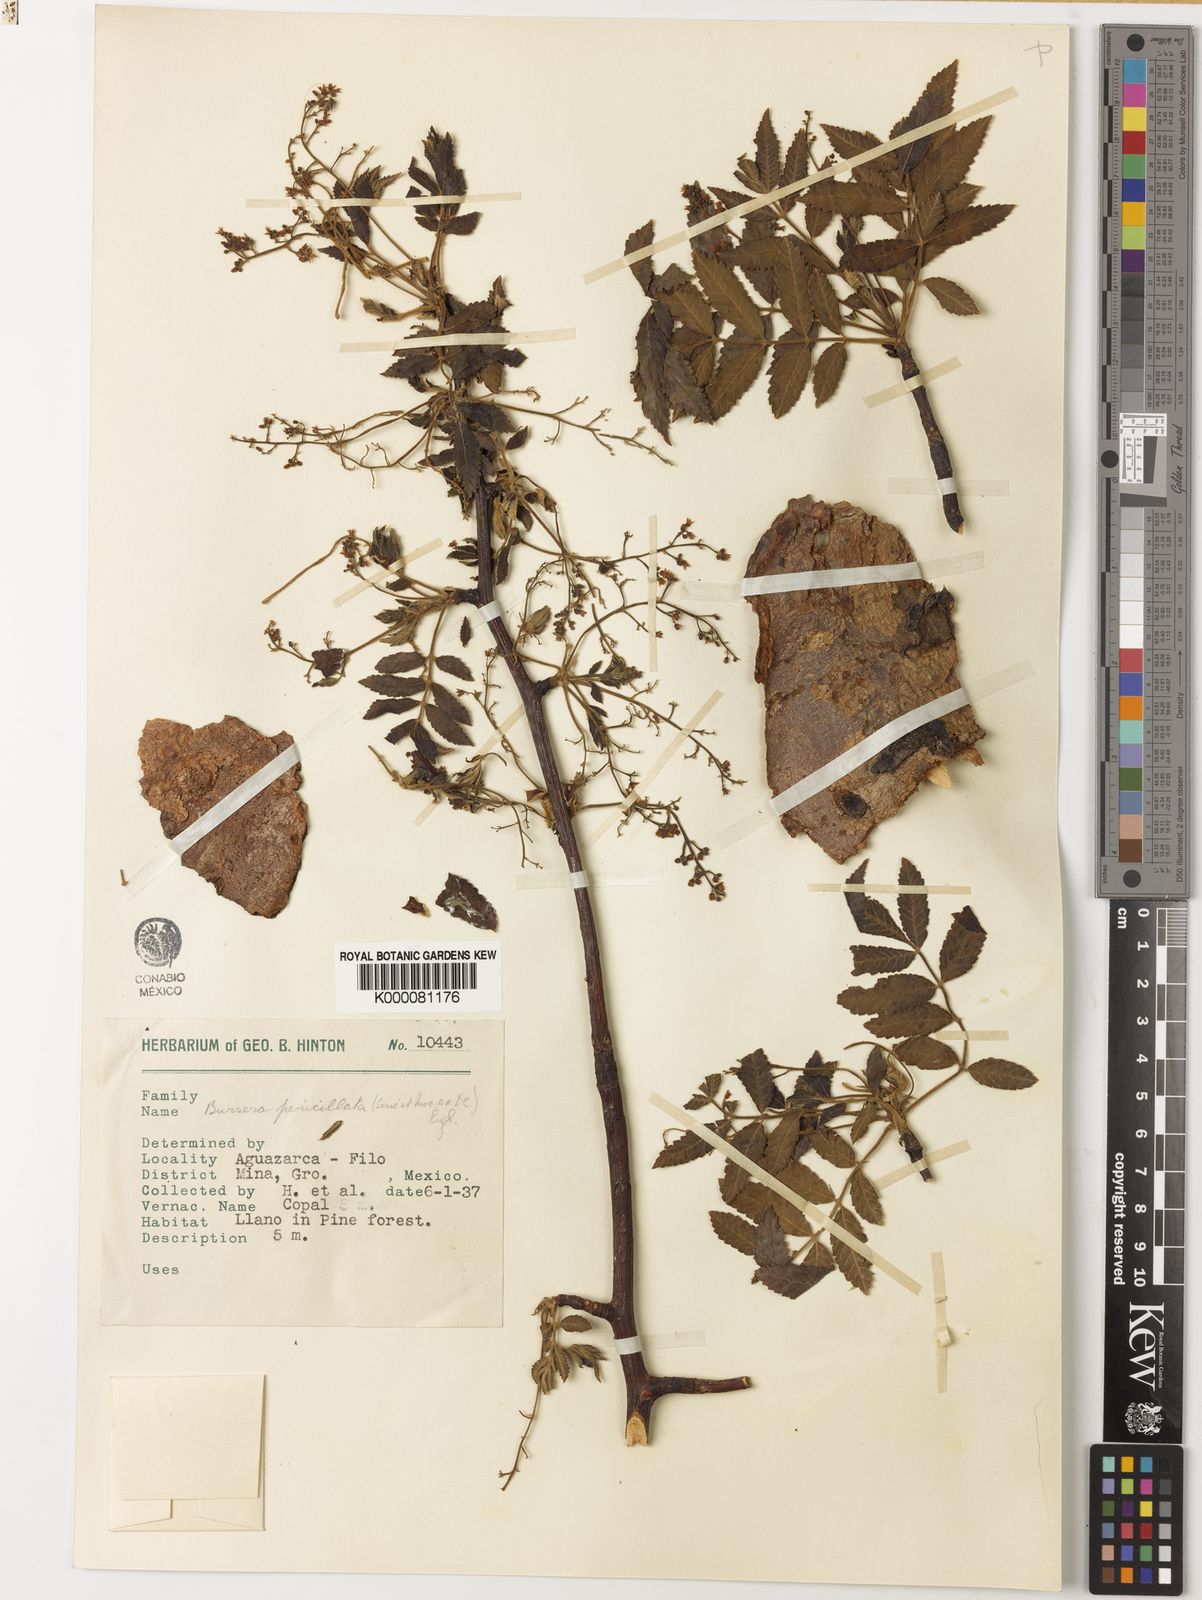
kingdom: Plantae
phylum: Tracheophyta
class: Magnoliopsida
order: Sapindales
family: Burseraceae
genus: Bursera
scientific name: Bursera penicillata
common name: Indian-lavender
